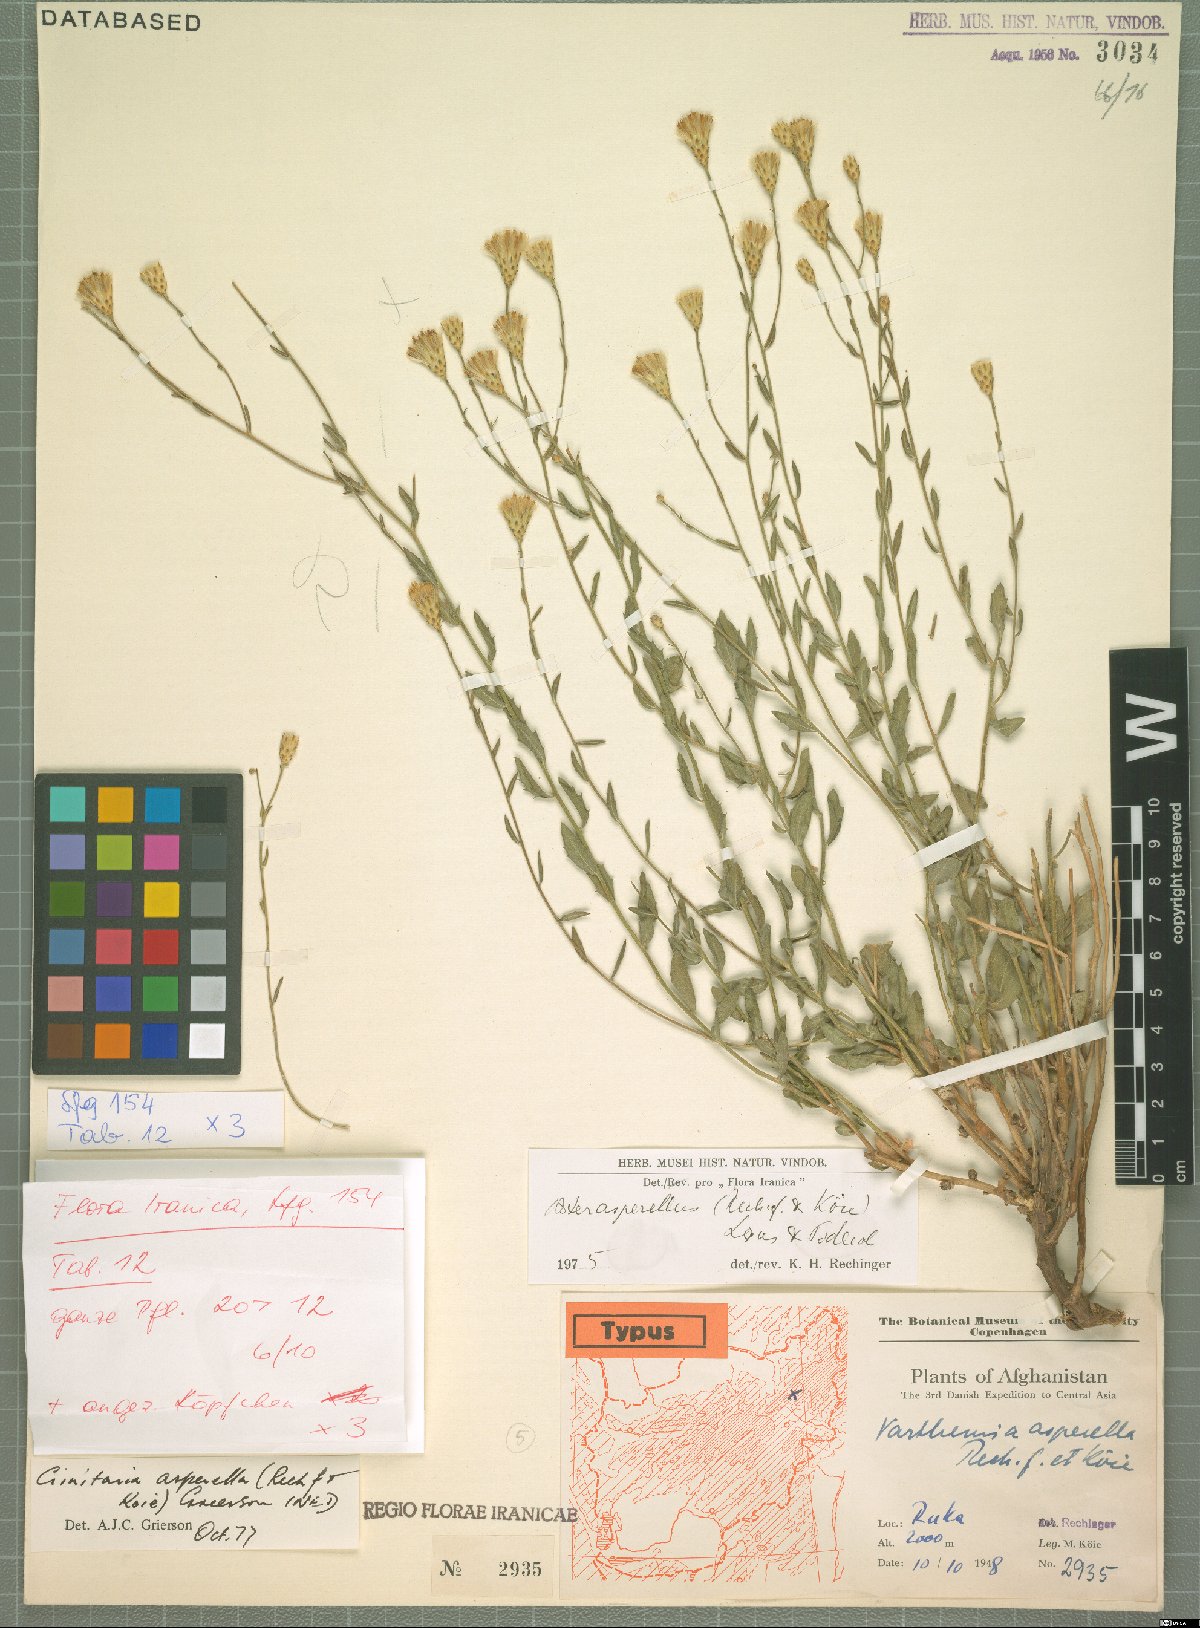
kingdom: Plantae
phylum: Tracheophyta
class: Magnoliopsida
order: Asterales
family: Asteraceae
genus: Galatella
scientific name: Galatella asperella
